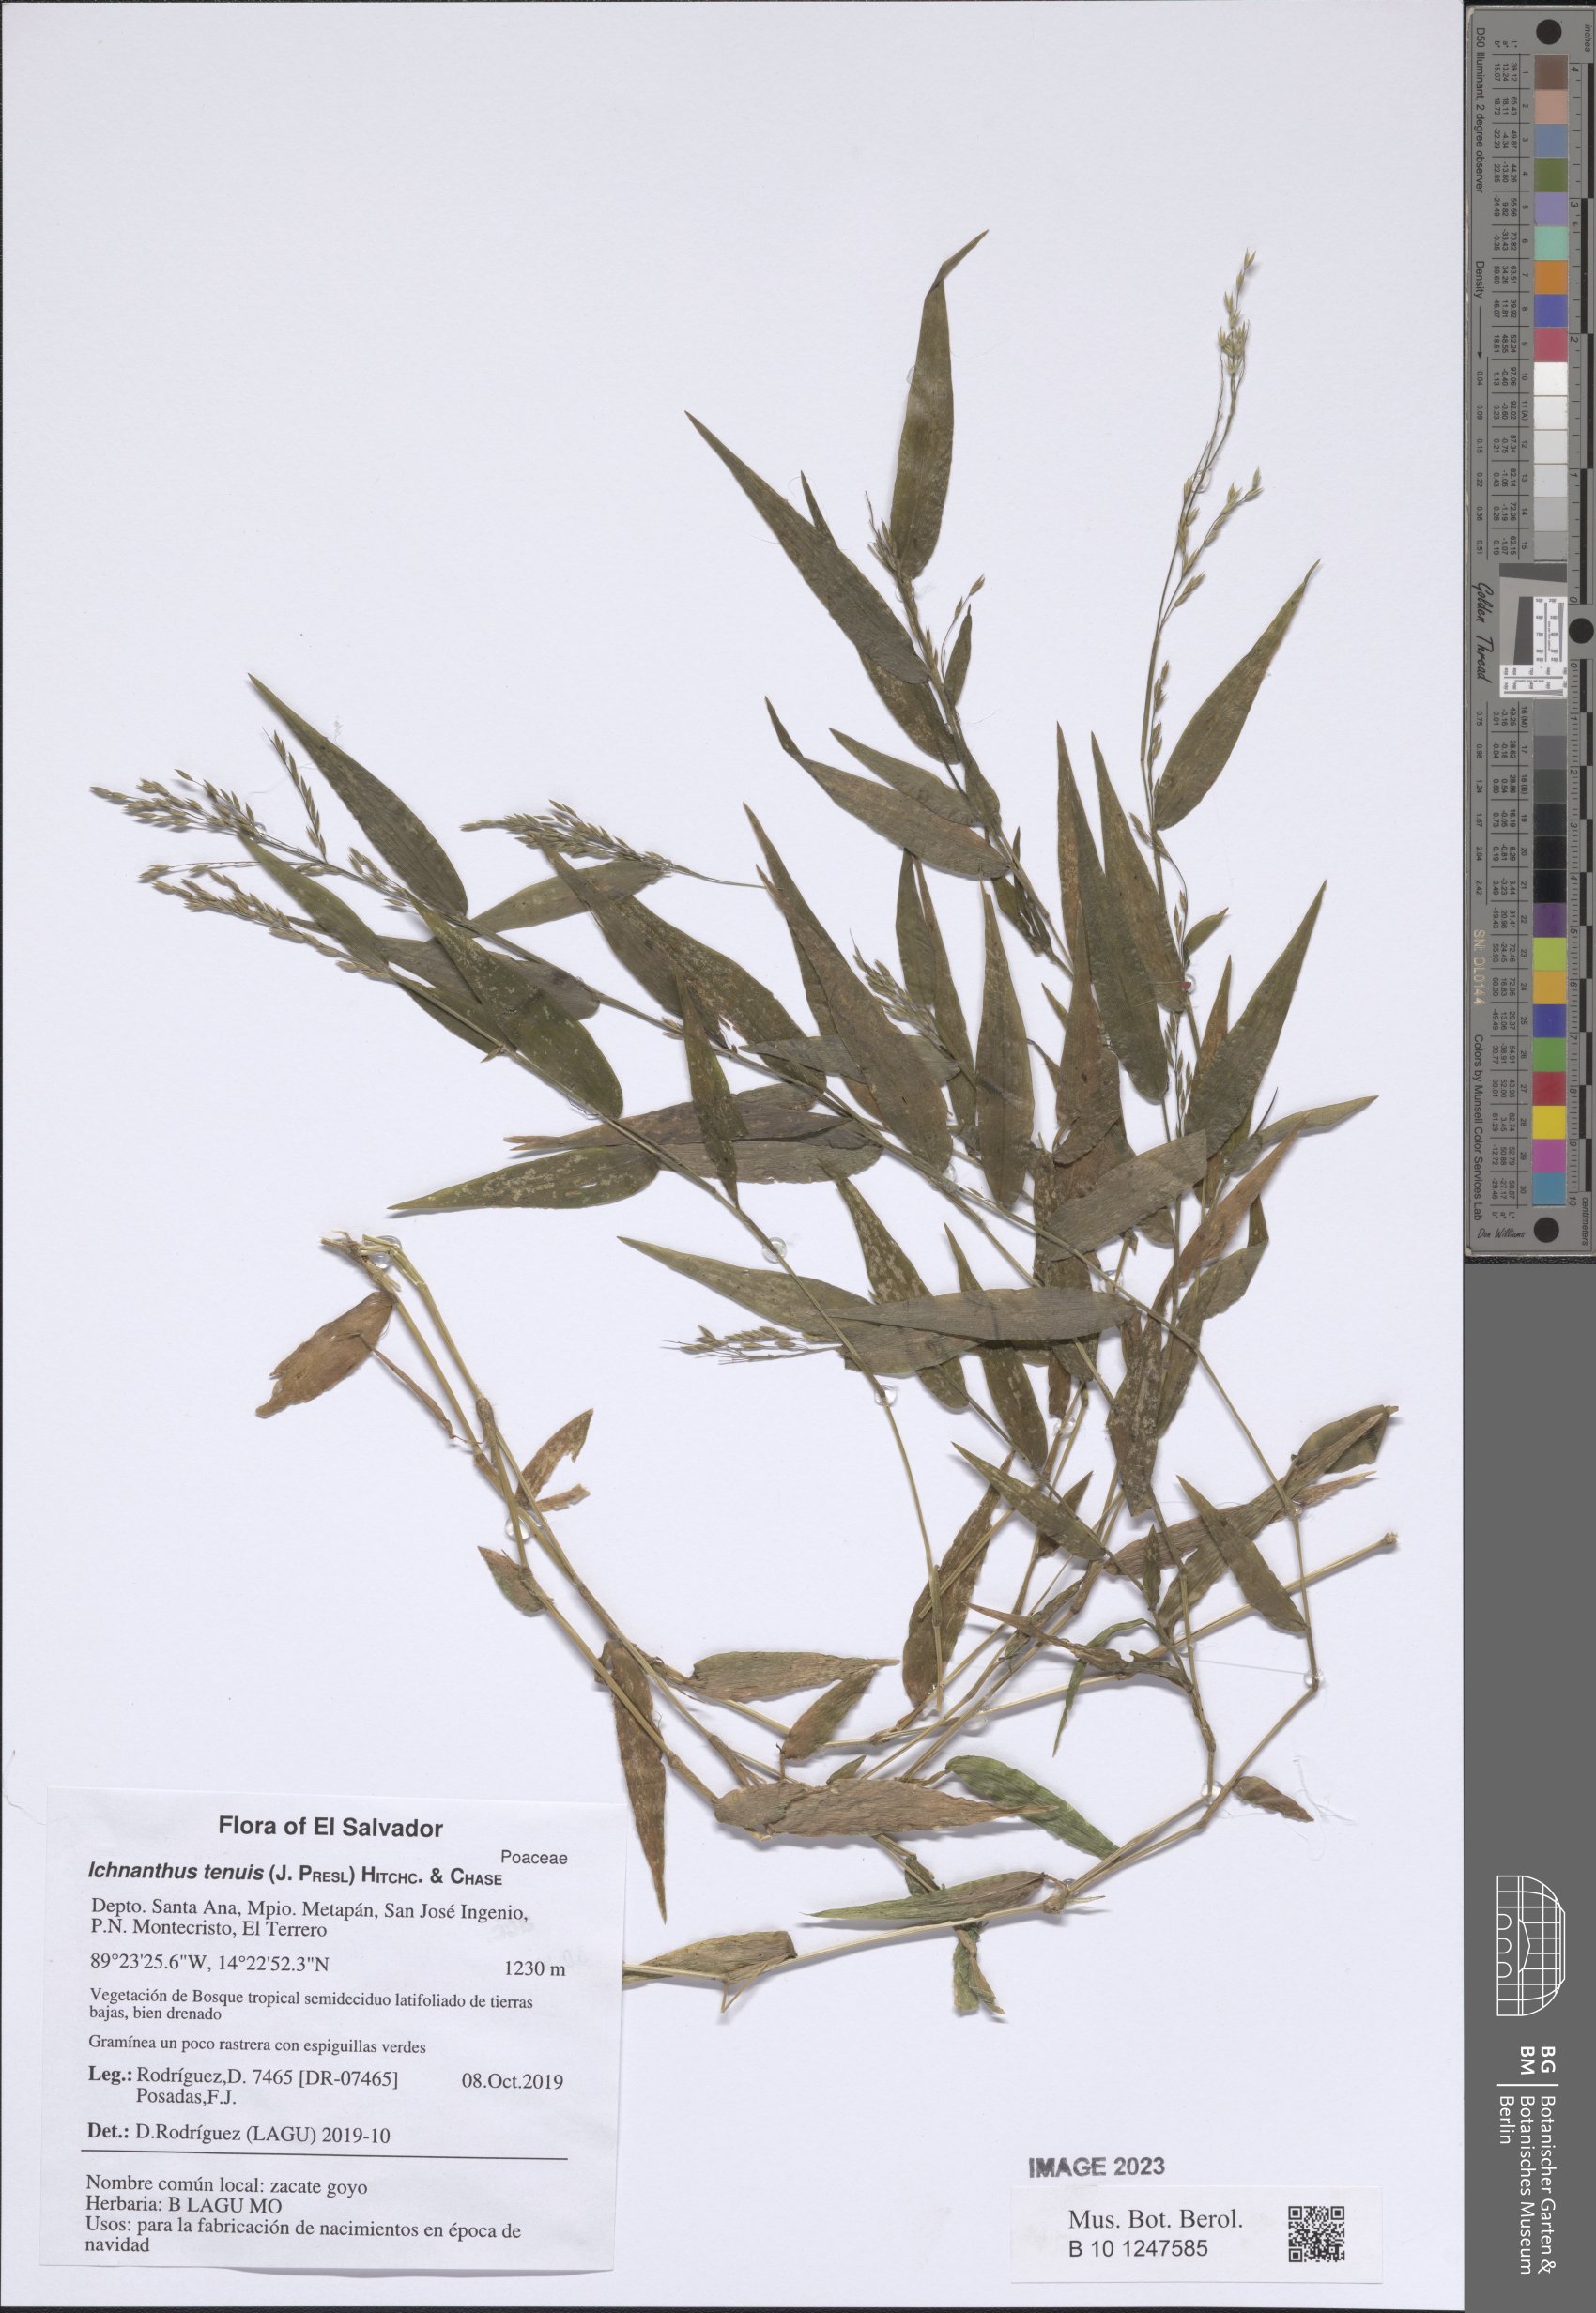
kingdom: Plantae
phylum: Tracheophyta
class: Liliopsida
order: Poales
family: Poaceae
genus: Ichnanthus
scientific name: Ichnanthus tenuis
